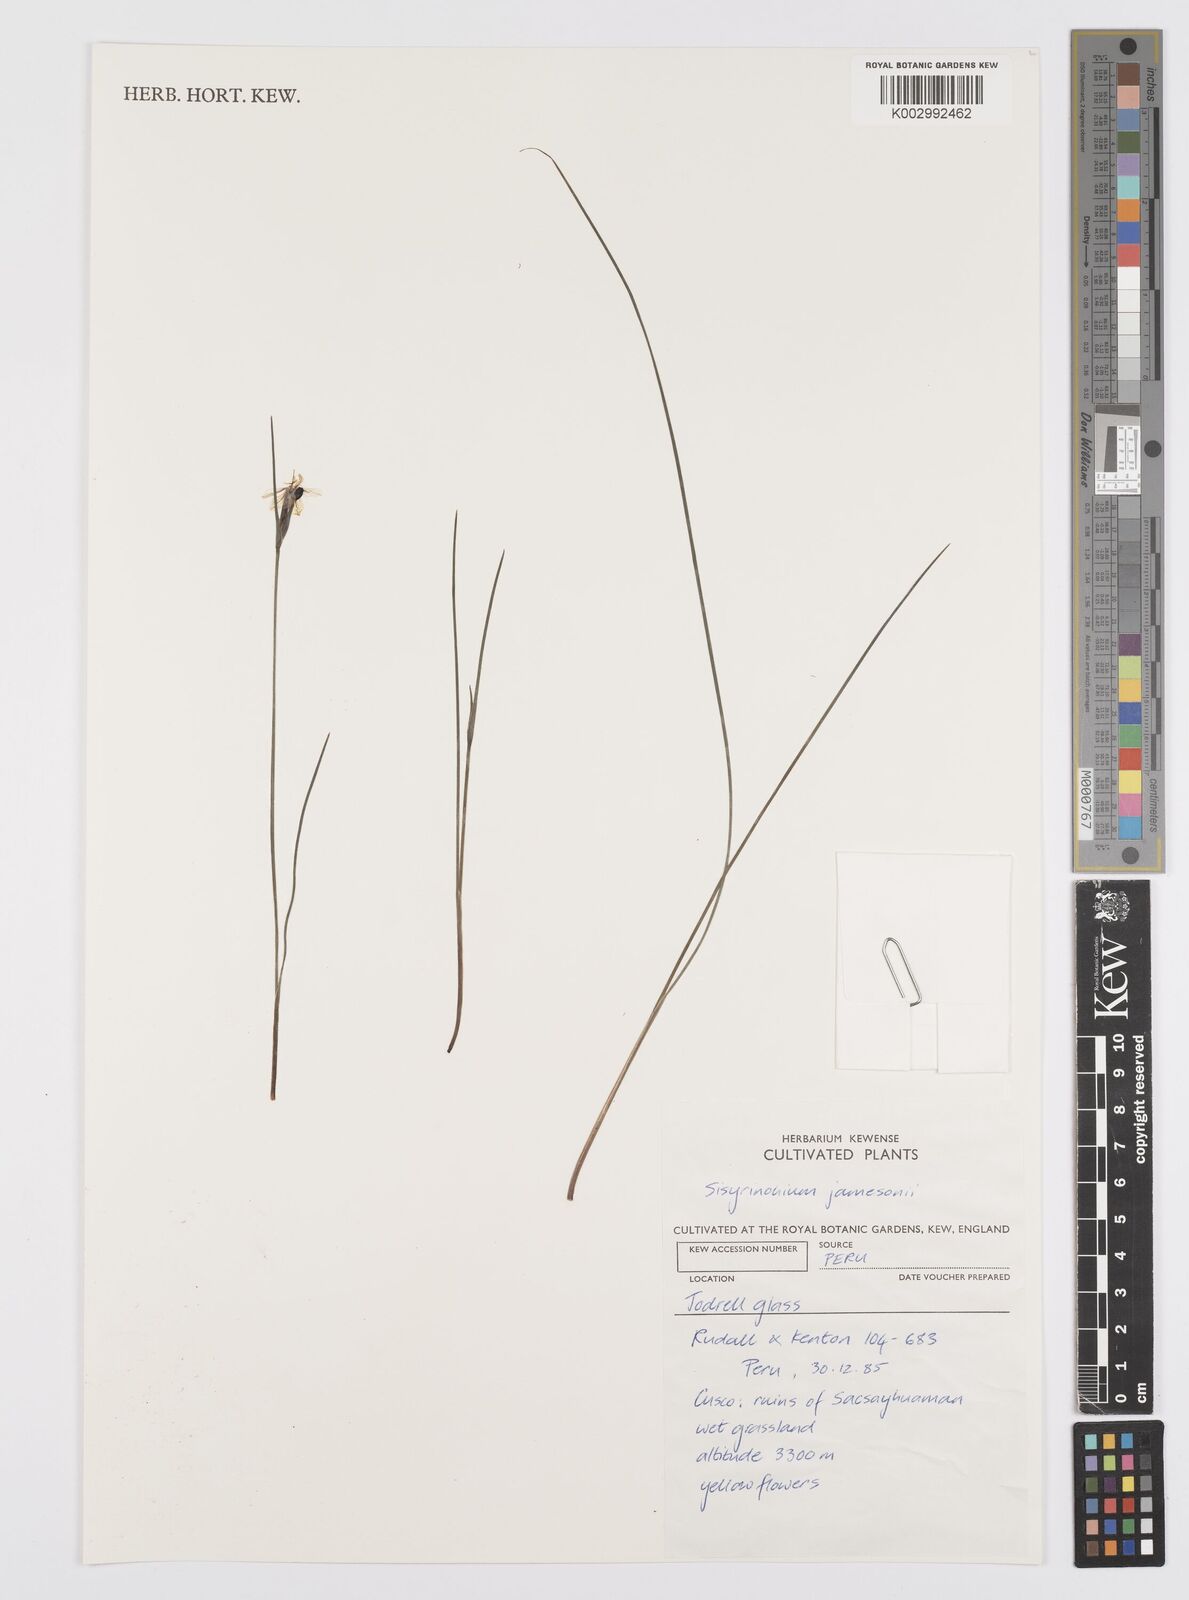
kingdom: Plantae
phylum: Tracheophyta
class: Liliopsida
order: Asparagales
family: Iridaceae
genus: Sisyrinchium
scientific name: Sisyrinchium jamesonii
